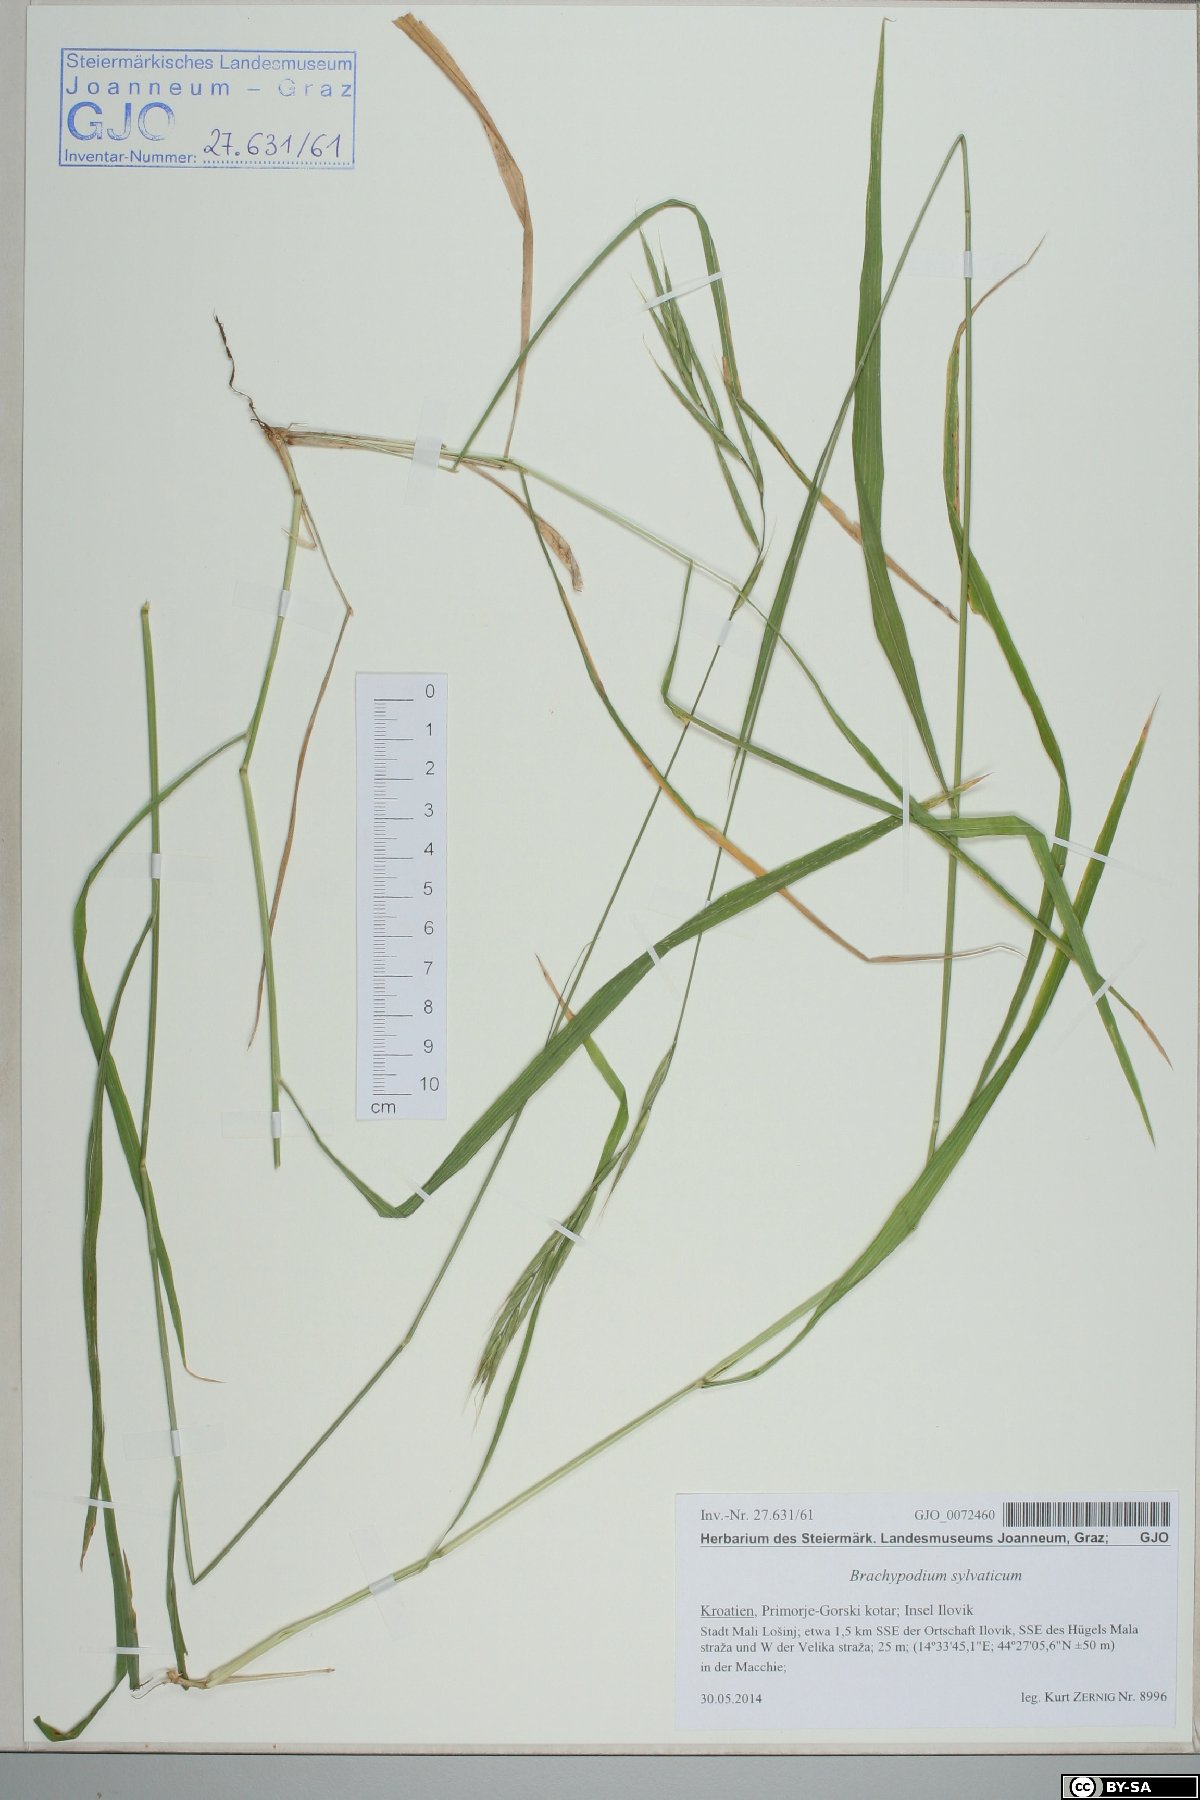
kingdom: Plantae
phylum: Tracheophyta
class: Liliopsida
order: Poales
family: Poaceae
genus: Brachypodium
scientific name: Brachypodium sylvaticum
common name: False-brome
